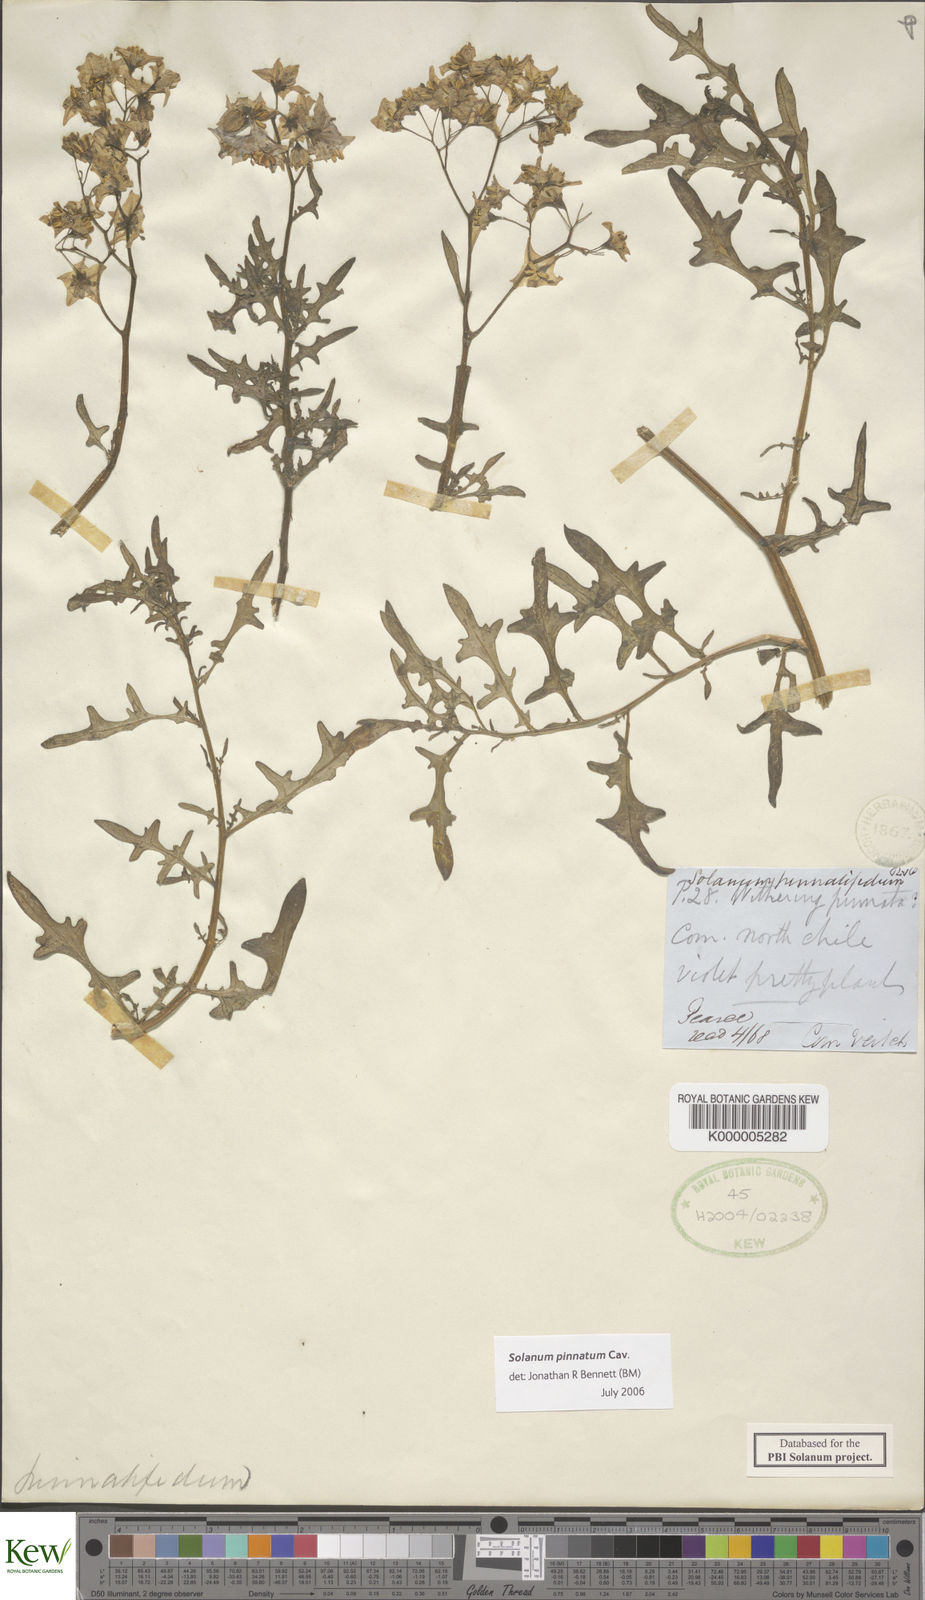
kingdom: Plantae
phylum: Tracheophyta
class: Magnoliopsida
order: Solanales
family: Solanaceae
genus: Solanum
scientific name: Solanum pinnatum
